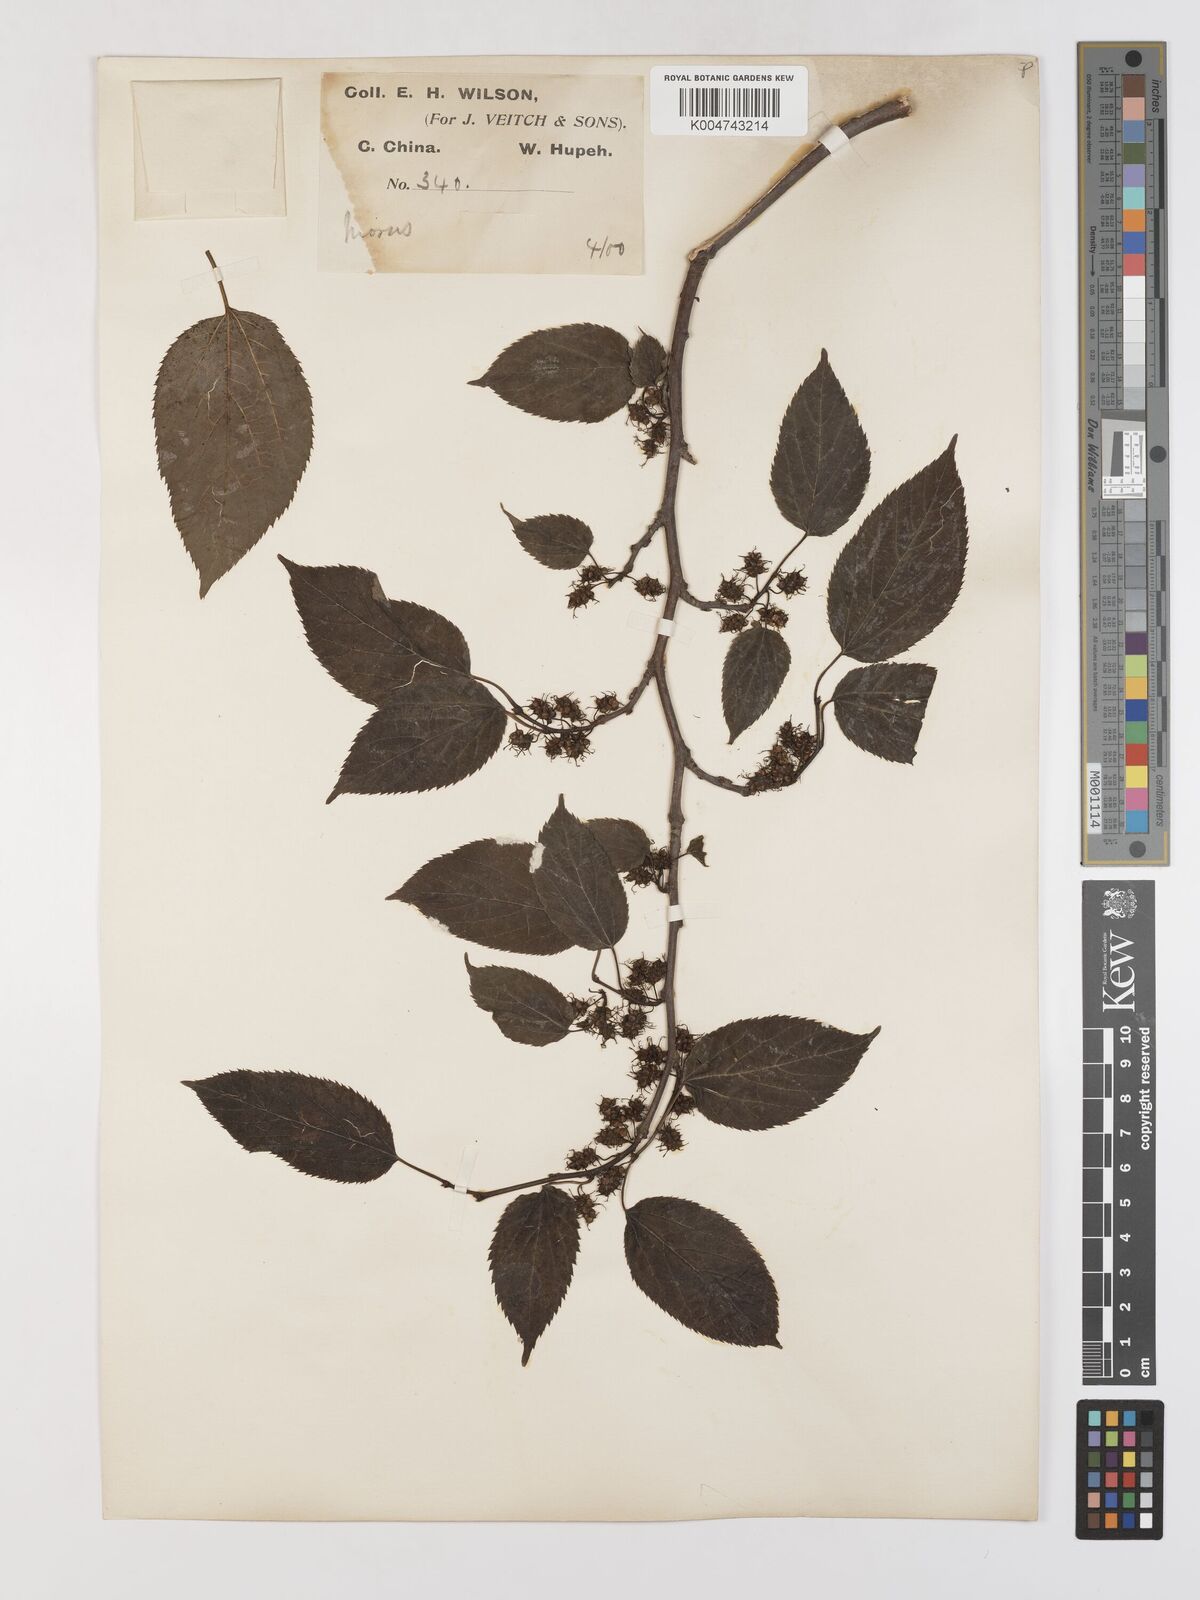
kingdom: Plantae
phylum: Tracheophyta
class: Magnoliopsida
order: Rosales
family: Moraceae
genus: Morus
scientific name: Morus indica
